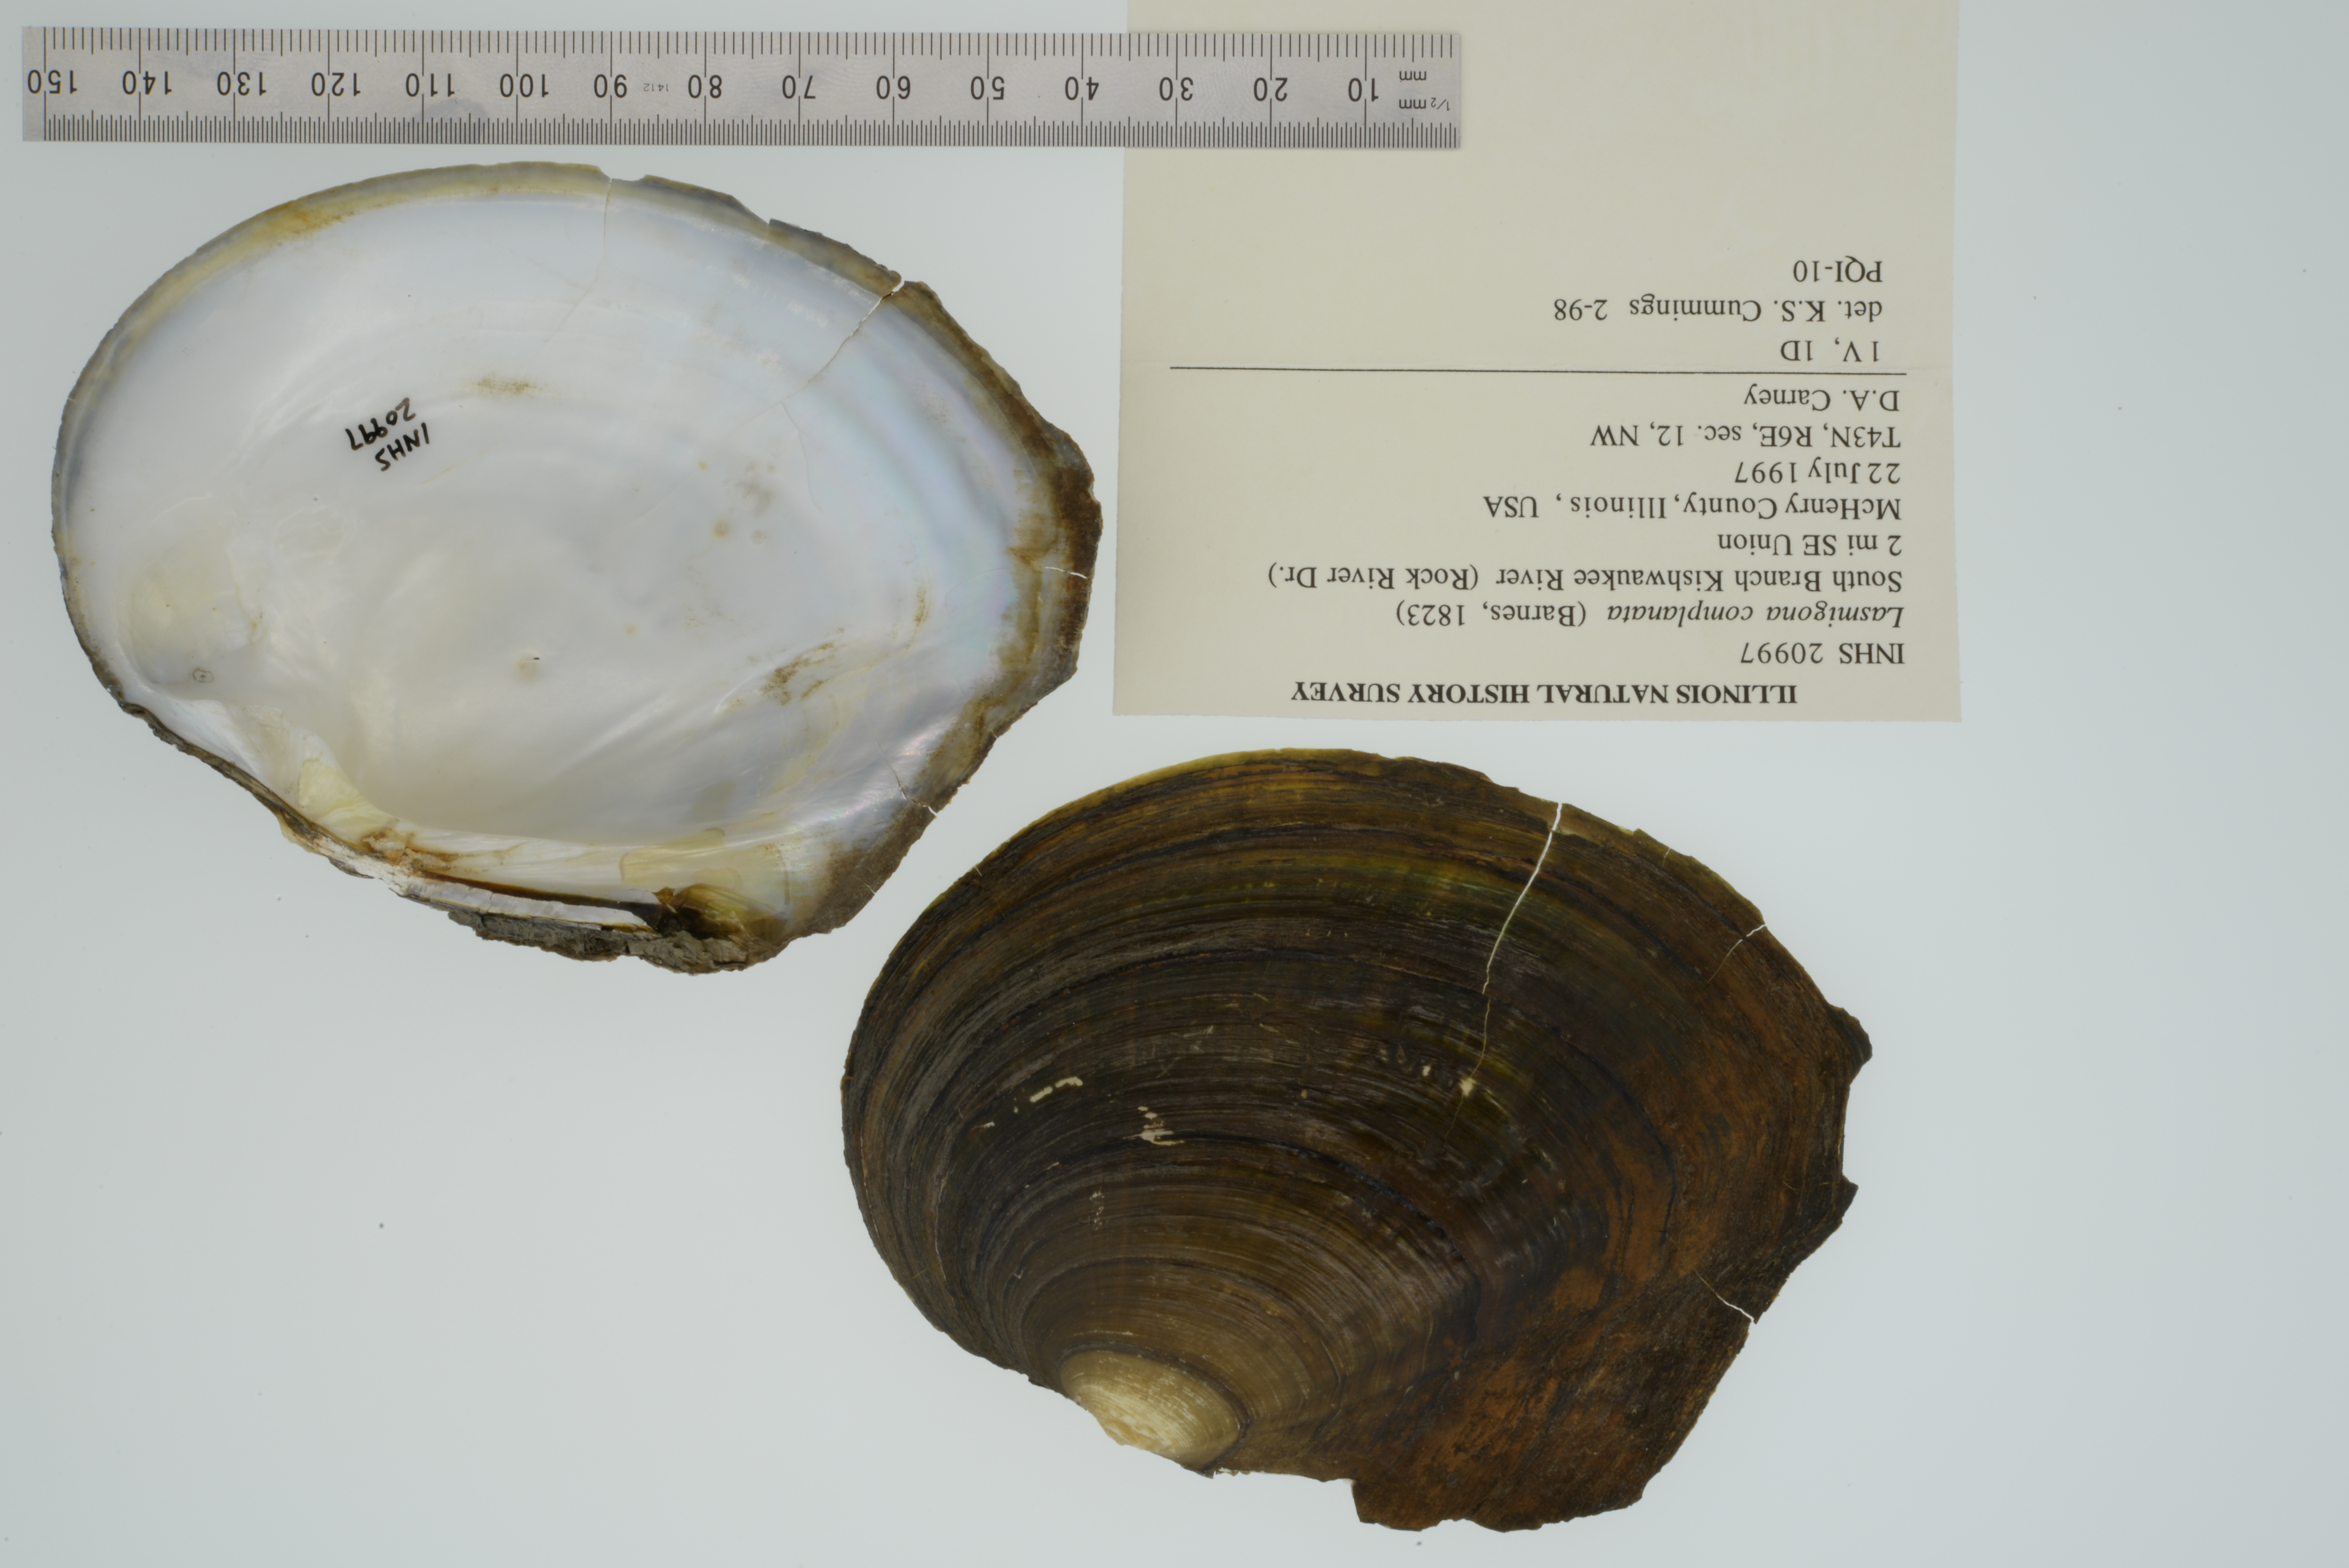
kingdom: Animalia
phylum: Mollusca
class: Bivalvia
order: Unionida
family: Unionidae
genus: Lasmigona
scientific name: Lasmigona complanata
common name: White heelsplitter
